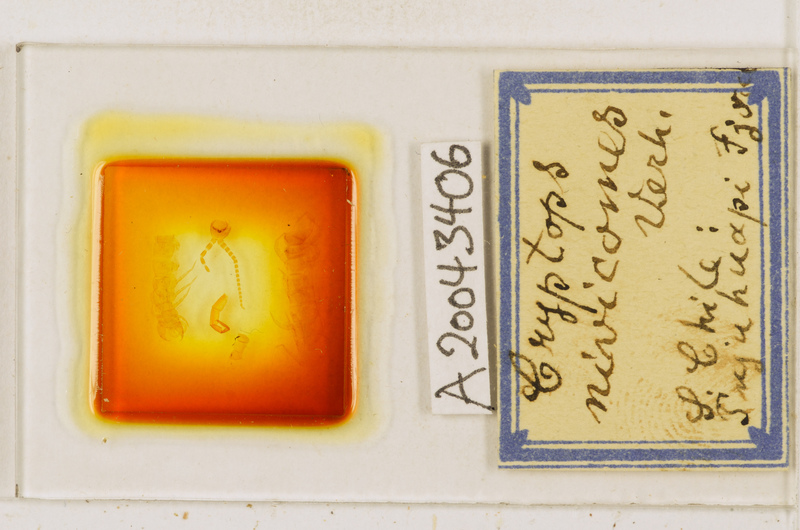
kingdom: Animalia
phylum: Arthropoda
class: Chilopoda
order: Scolopendromorpha
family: Cryptopidae
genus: Cryptops
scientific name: Cryptops nivicomes
